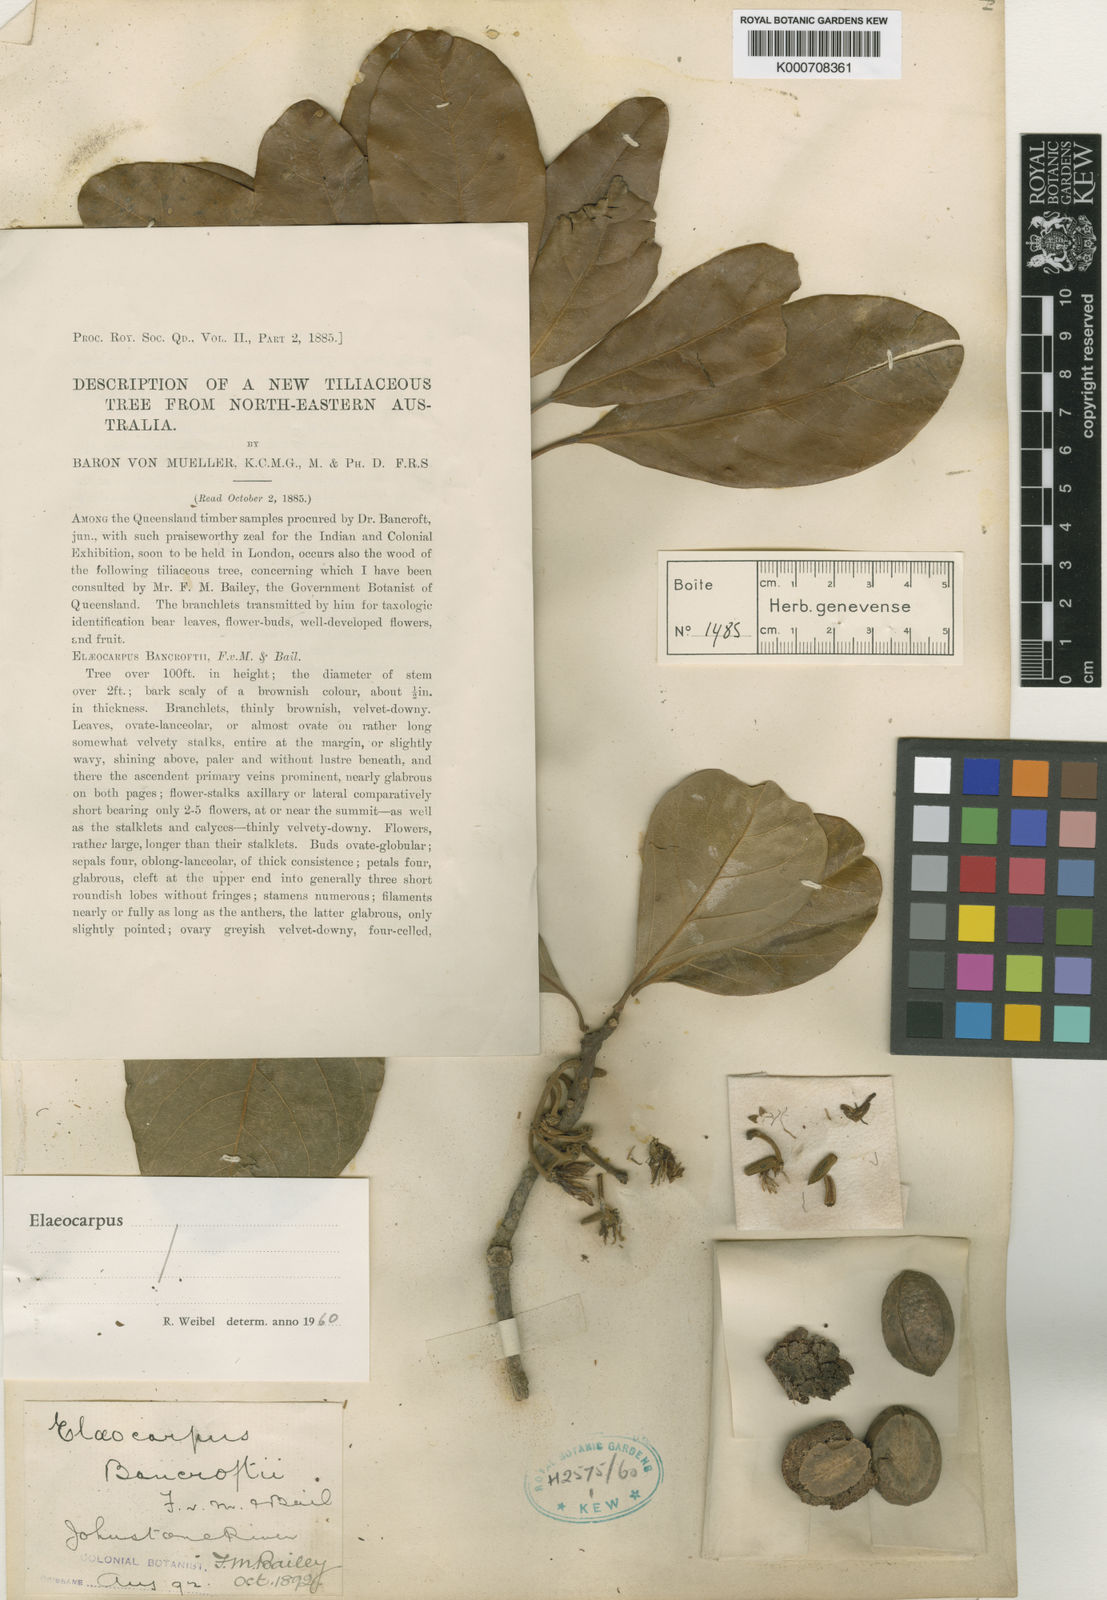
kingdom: Plantae
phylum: Tracheophyta
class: Magnoliopsida
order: Oxalidales
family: Elaeocarpaceae
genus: Elaeocarpus
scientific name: Elaeocarpus bancroftii
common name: Johnstone river-almond
